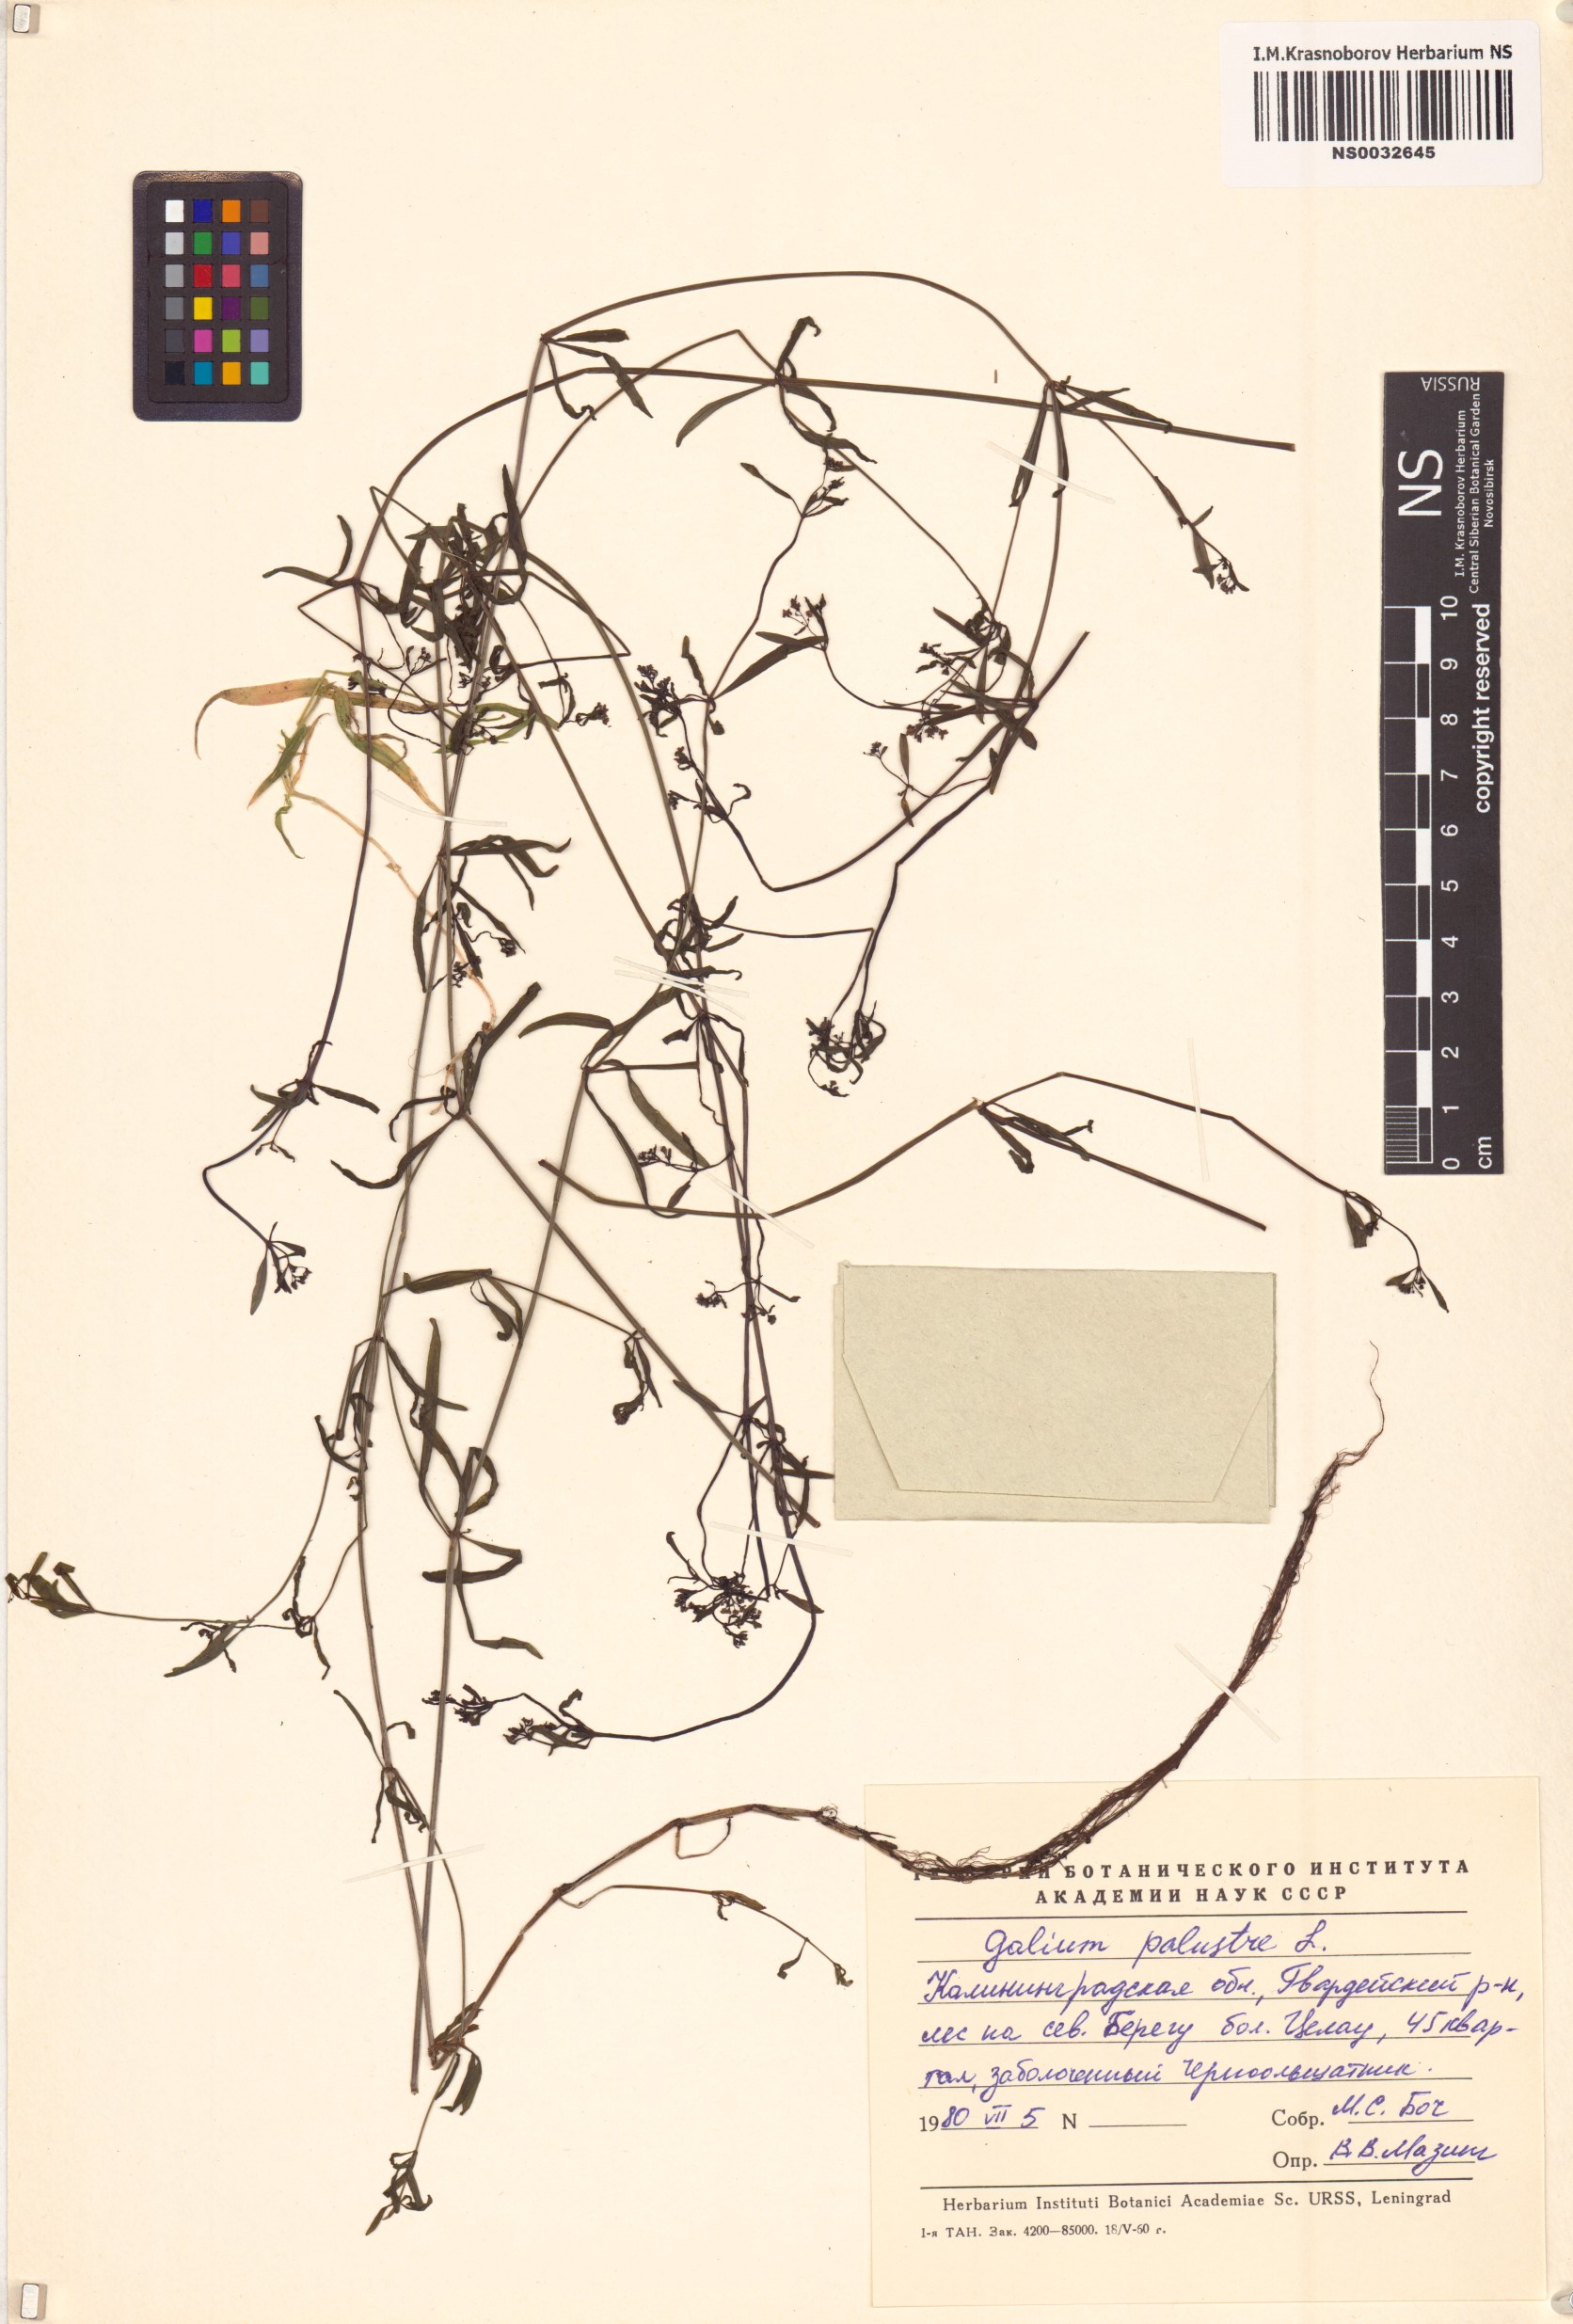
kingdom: Plantae
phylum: Tracheophyta
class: Magnoliopsida
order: Gentianales
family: Rubiaceae
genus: Galium
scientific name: Galium palustre
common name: Common marsh-bedstraw
